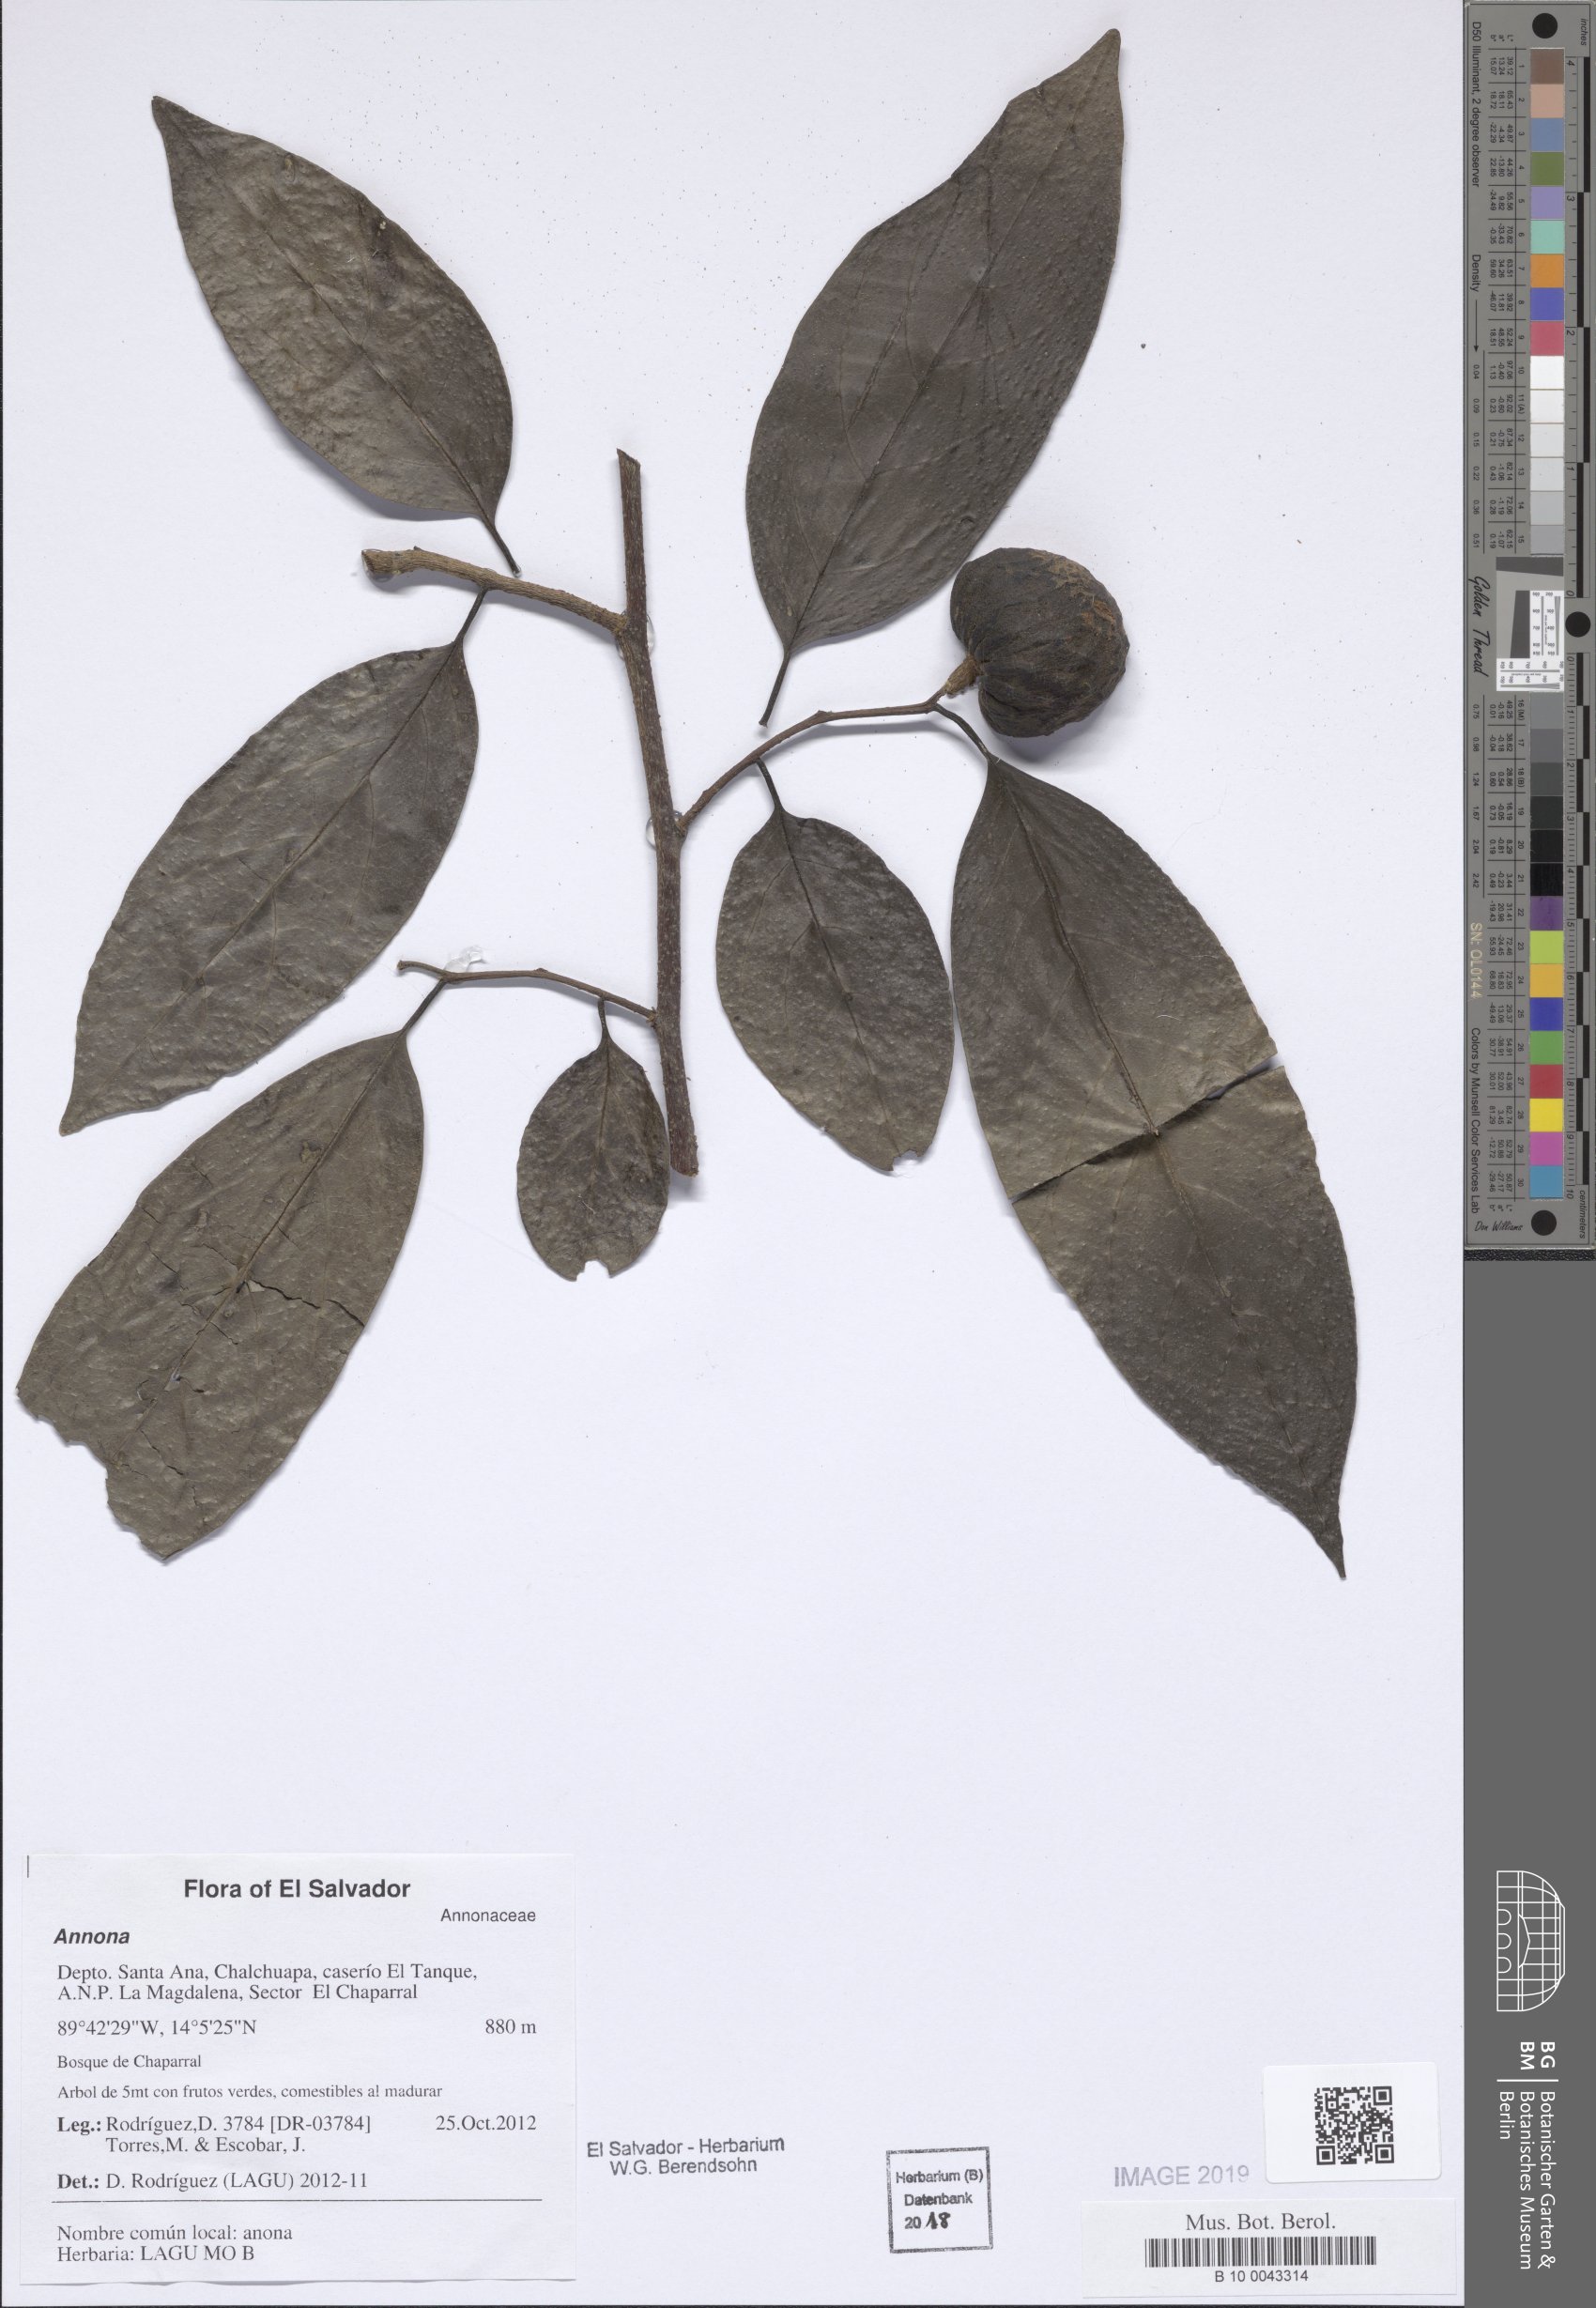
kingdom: Plantae
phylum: Tracheophyta
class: Magnoliopsida
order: Magnoliales
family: Annonaceae
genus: Annona
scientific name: Annona
